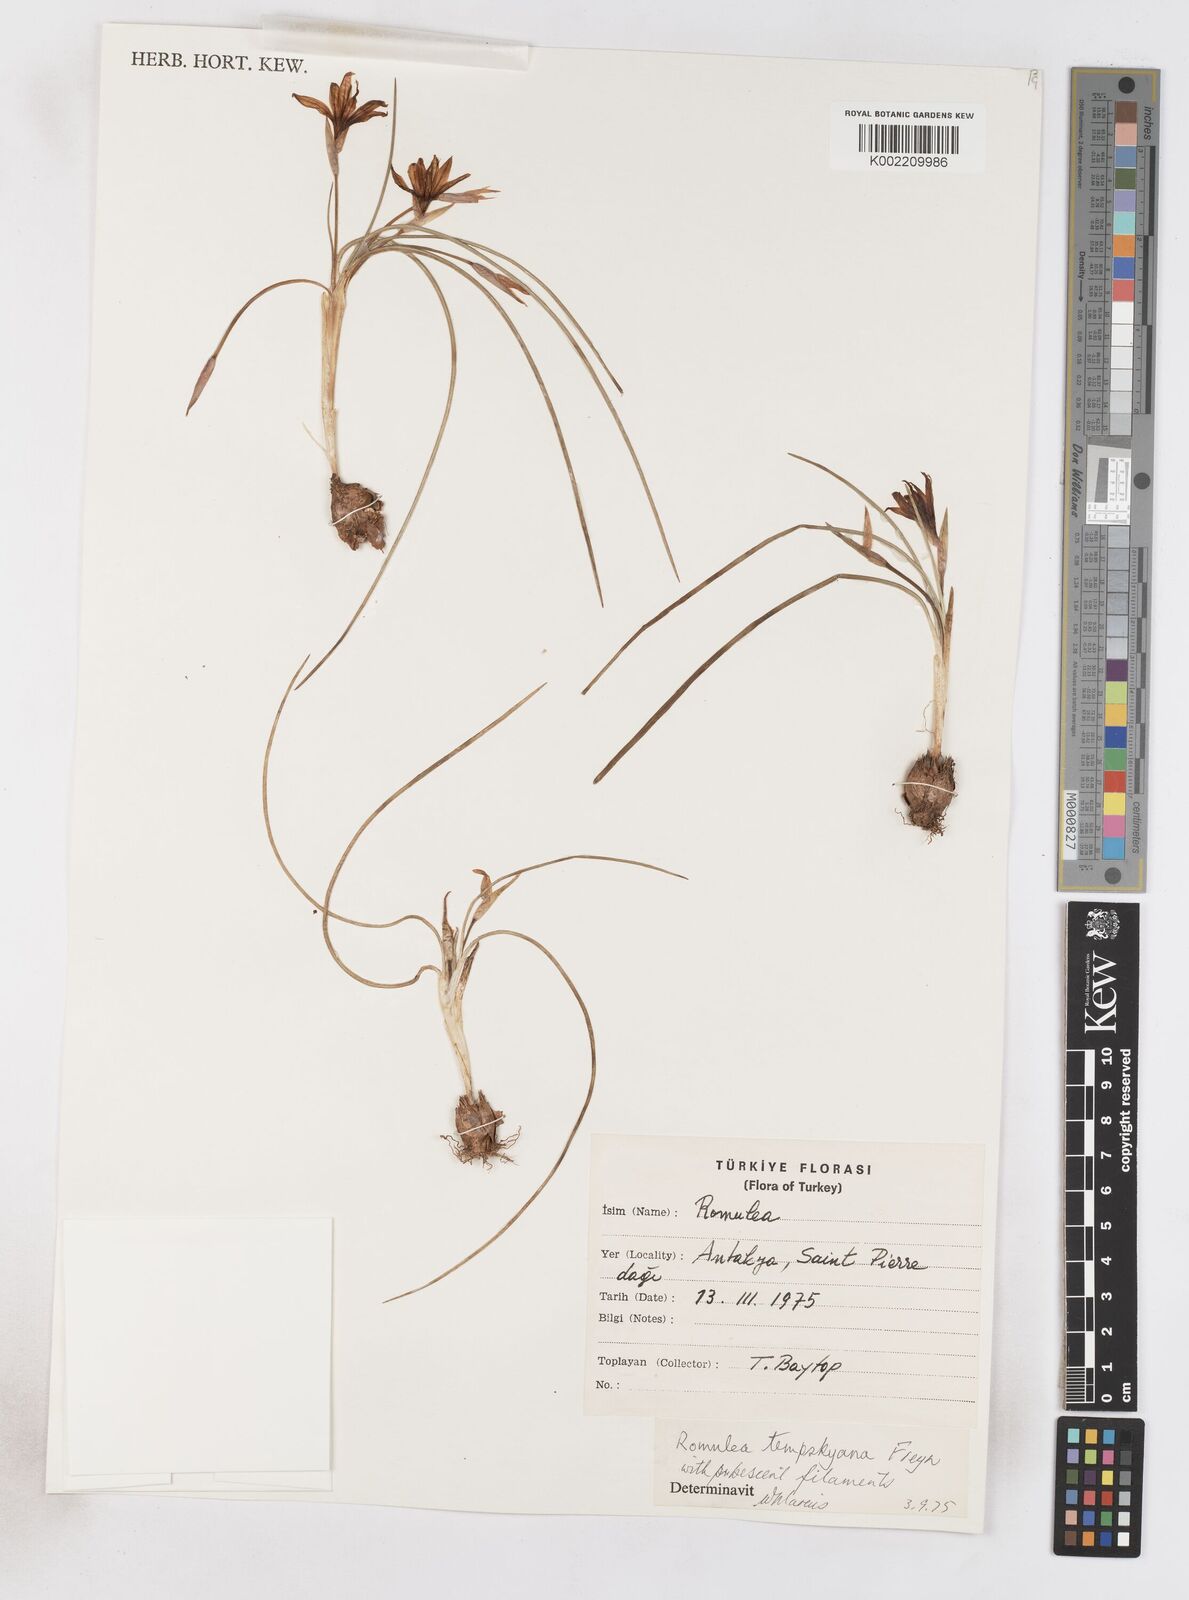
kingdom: Plantae
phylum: Tracheophyta
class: Liliopsida
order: Asparagales
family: Iridaceae
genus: Romulea
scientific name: Romulea tempskyana
